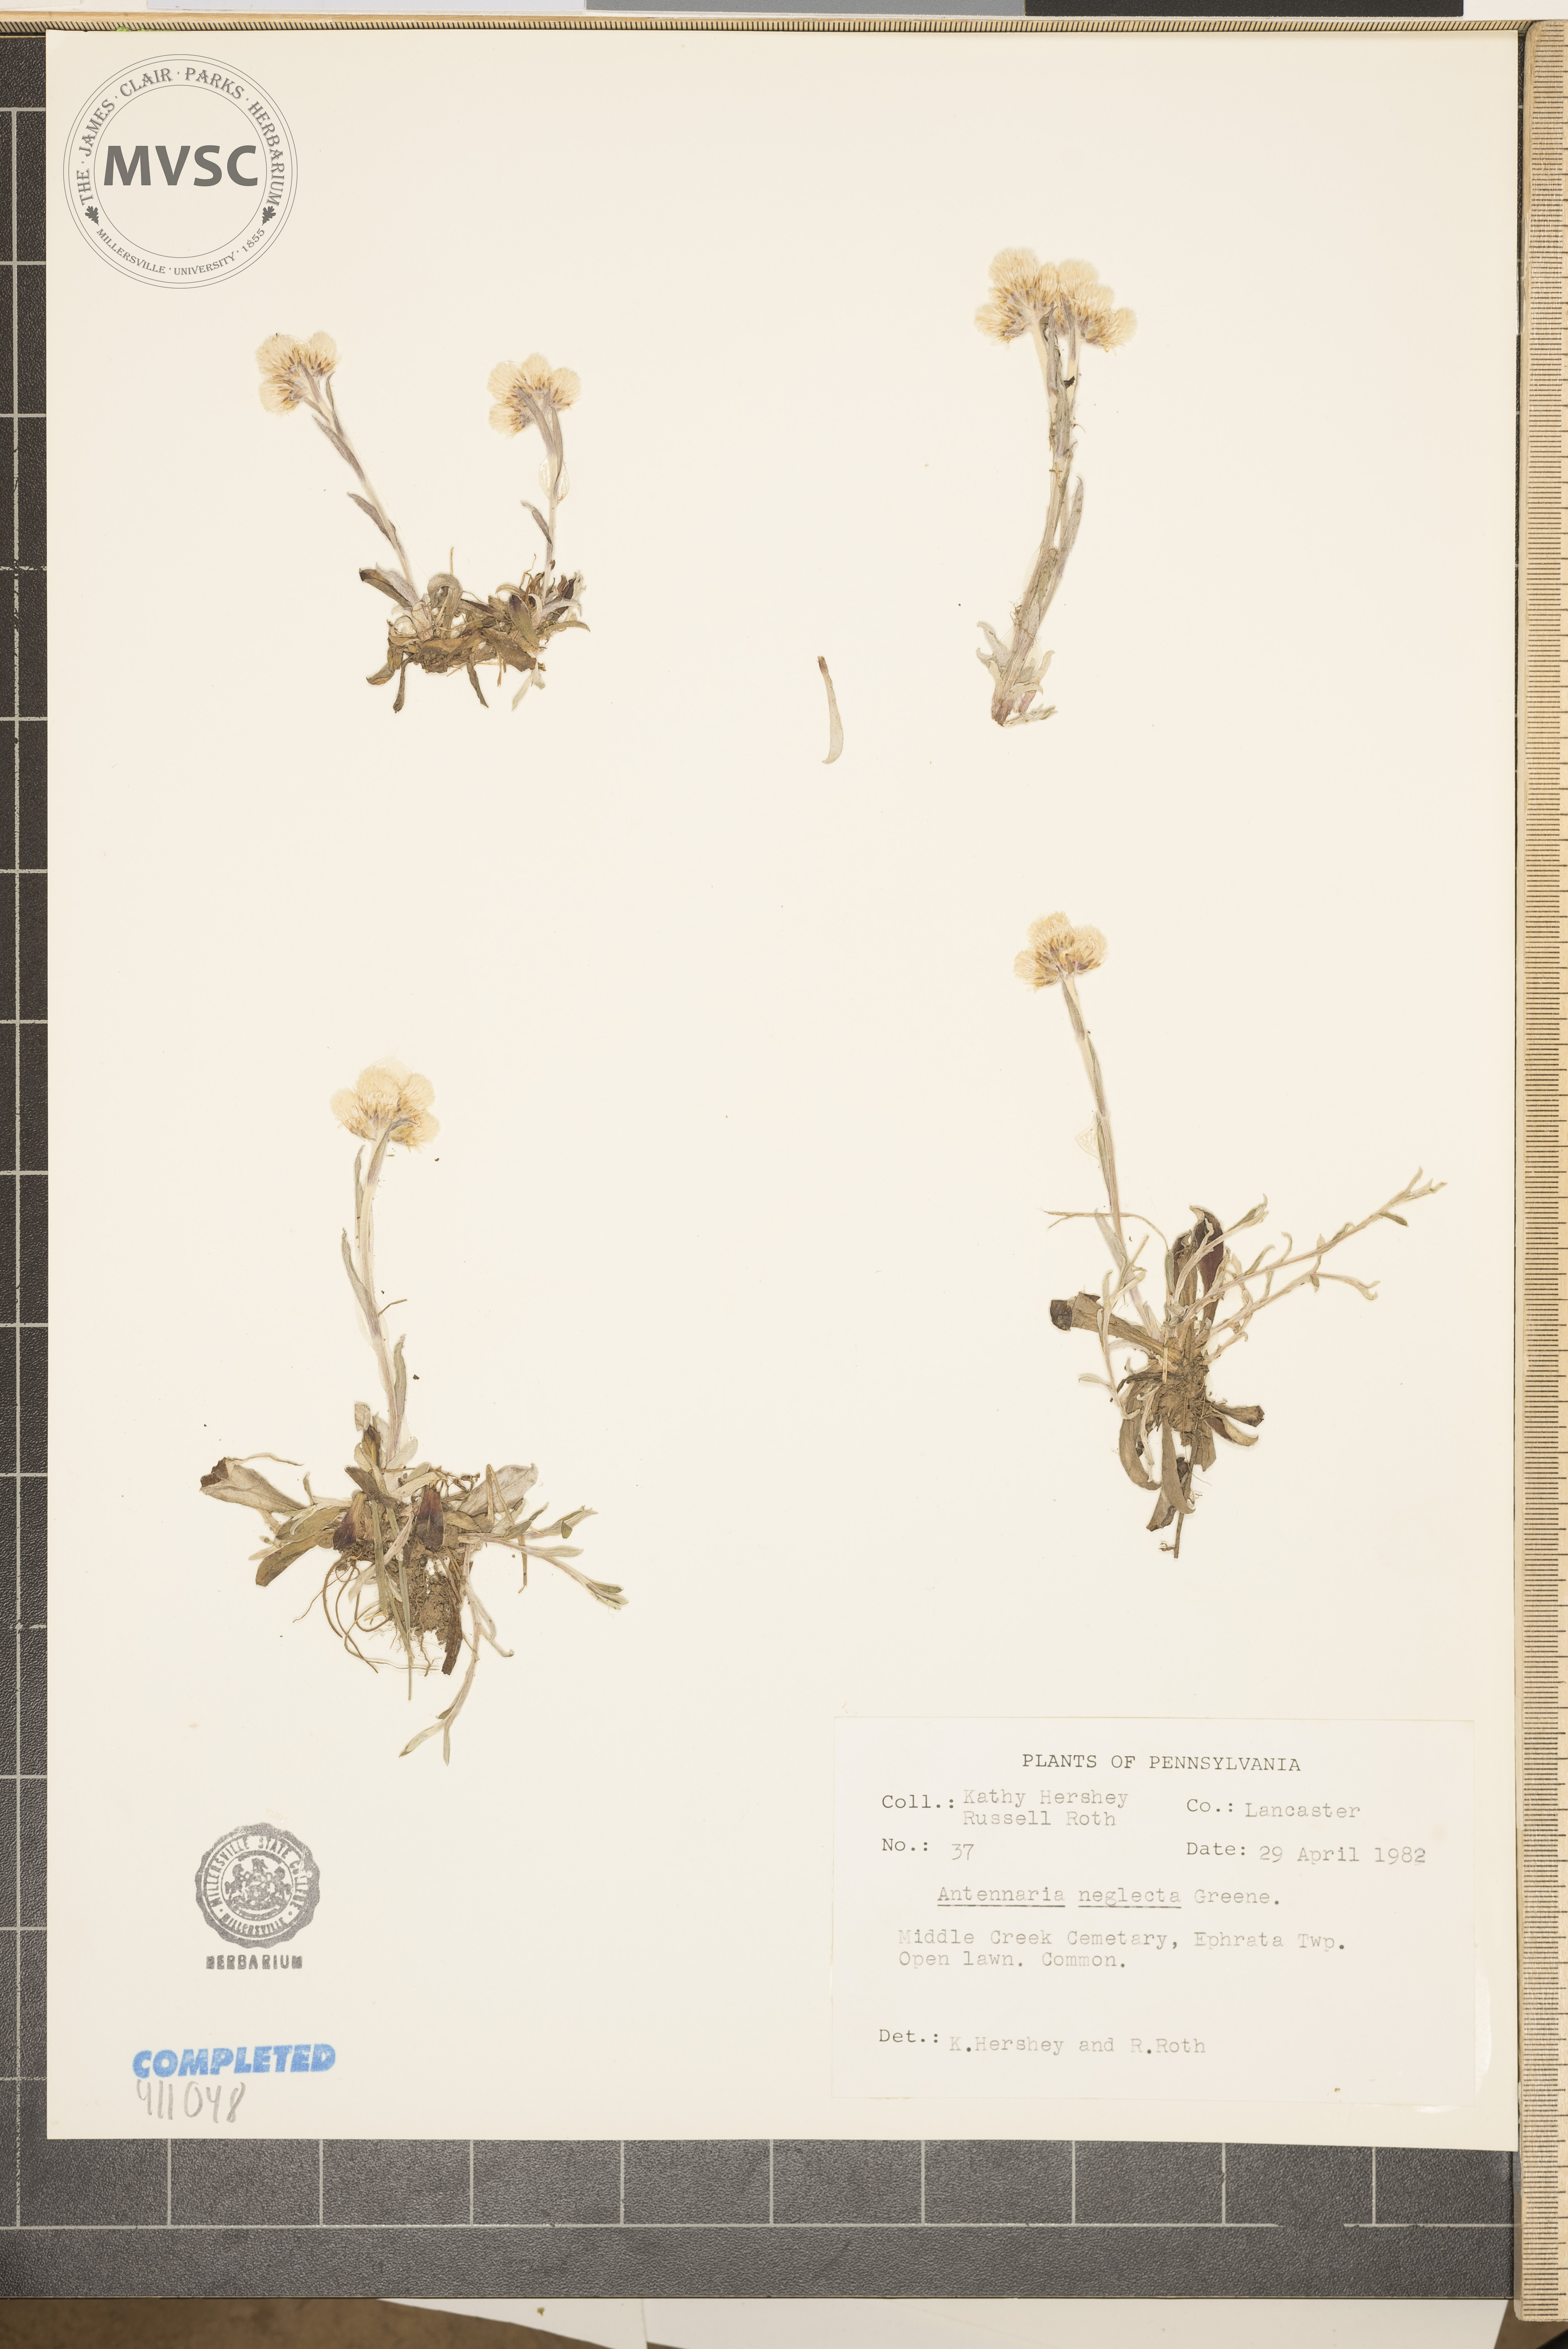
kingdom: Plantae
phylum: Tracheophyta
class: Magnoliopsida
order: Asterales
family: Asteraceae
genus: Antennaria
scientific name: Antennaria neglecta
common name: Field pussytoes
